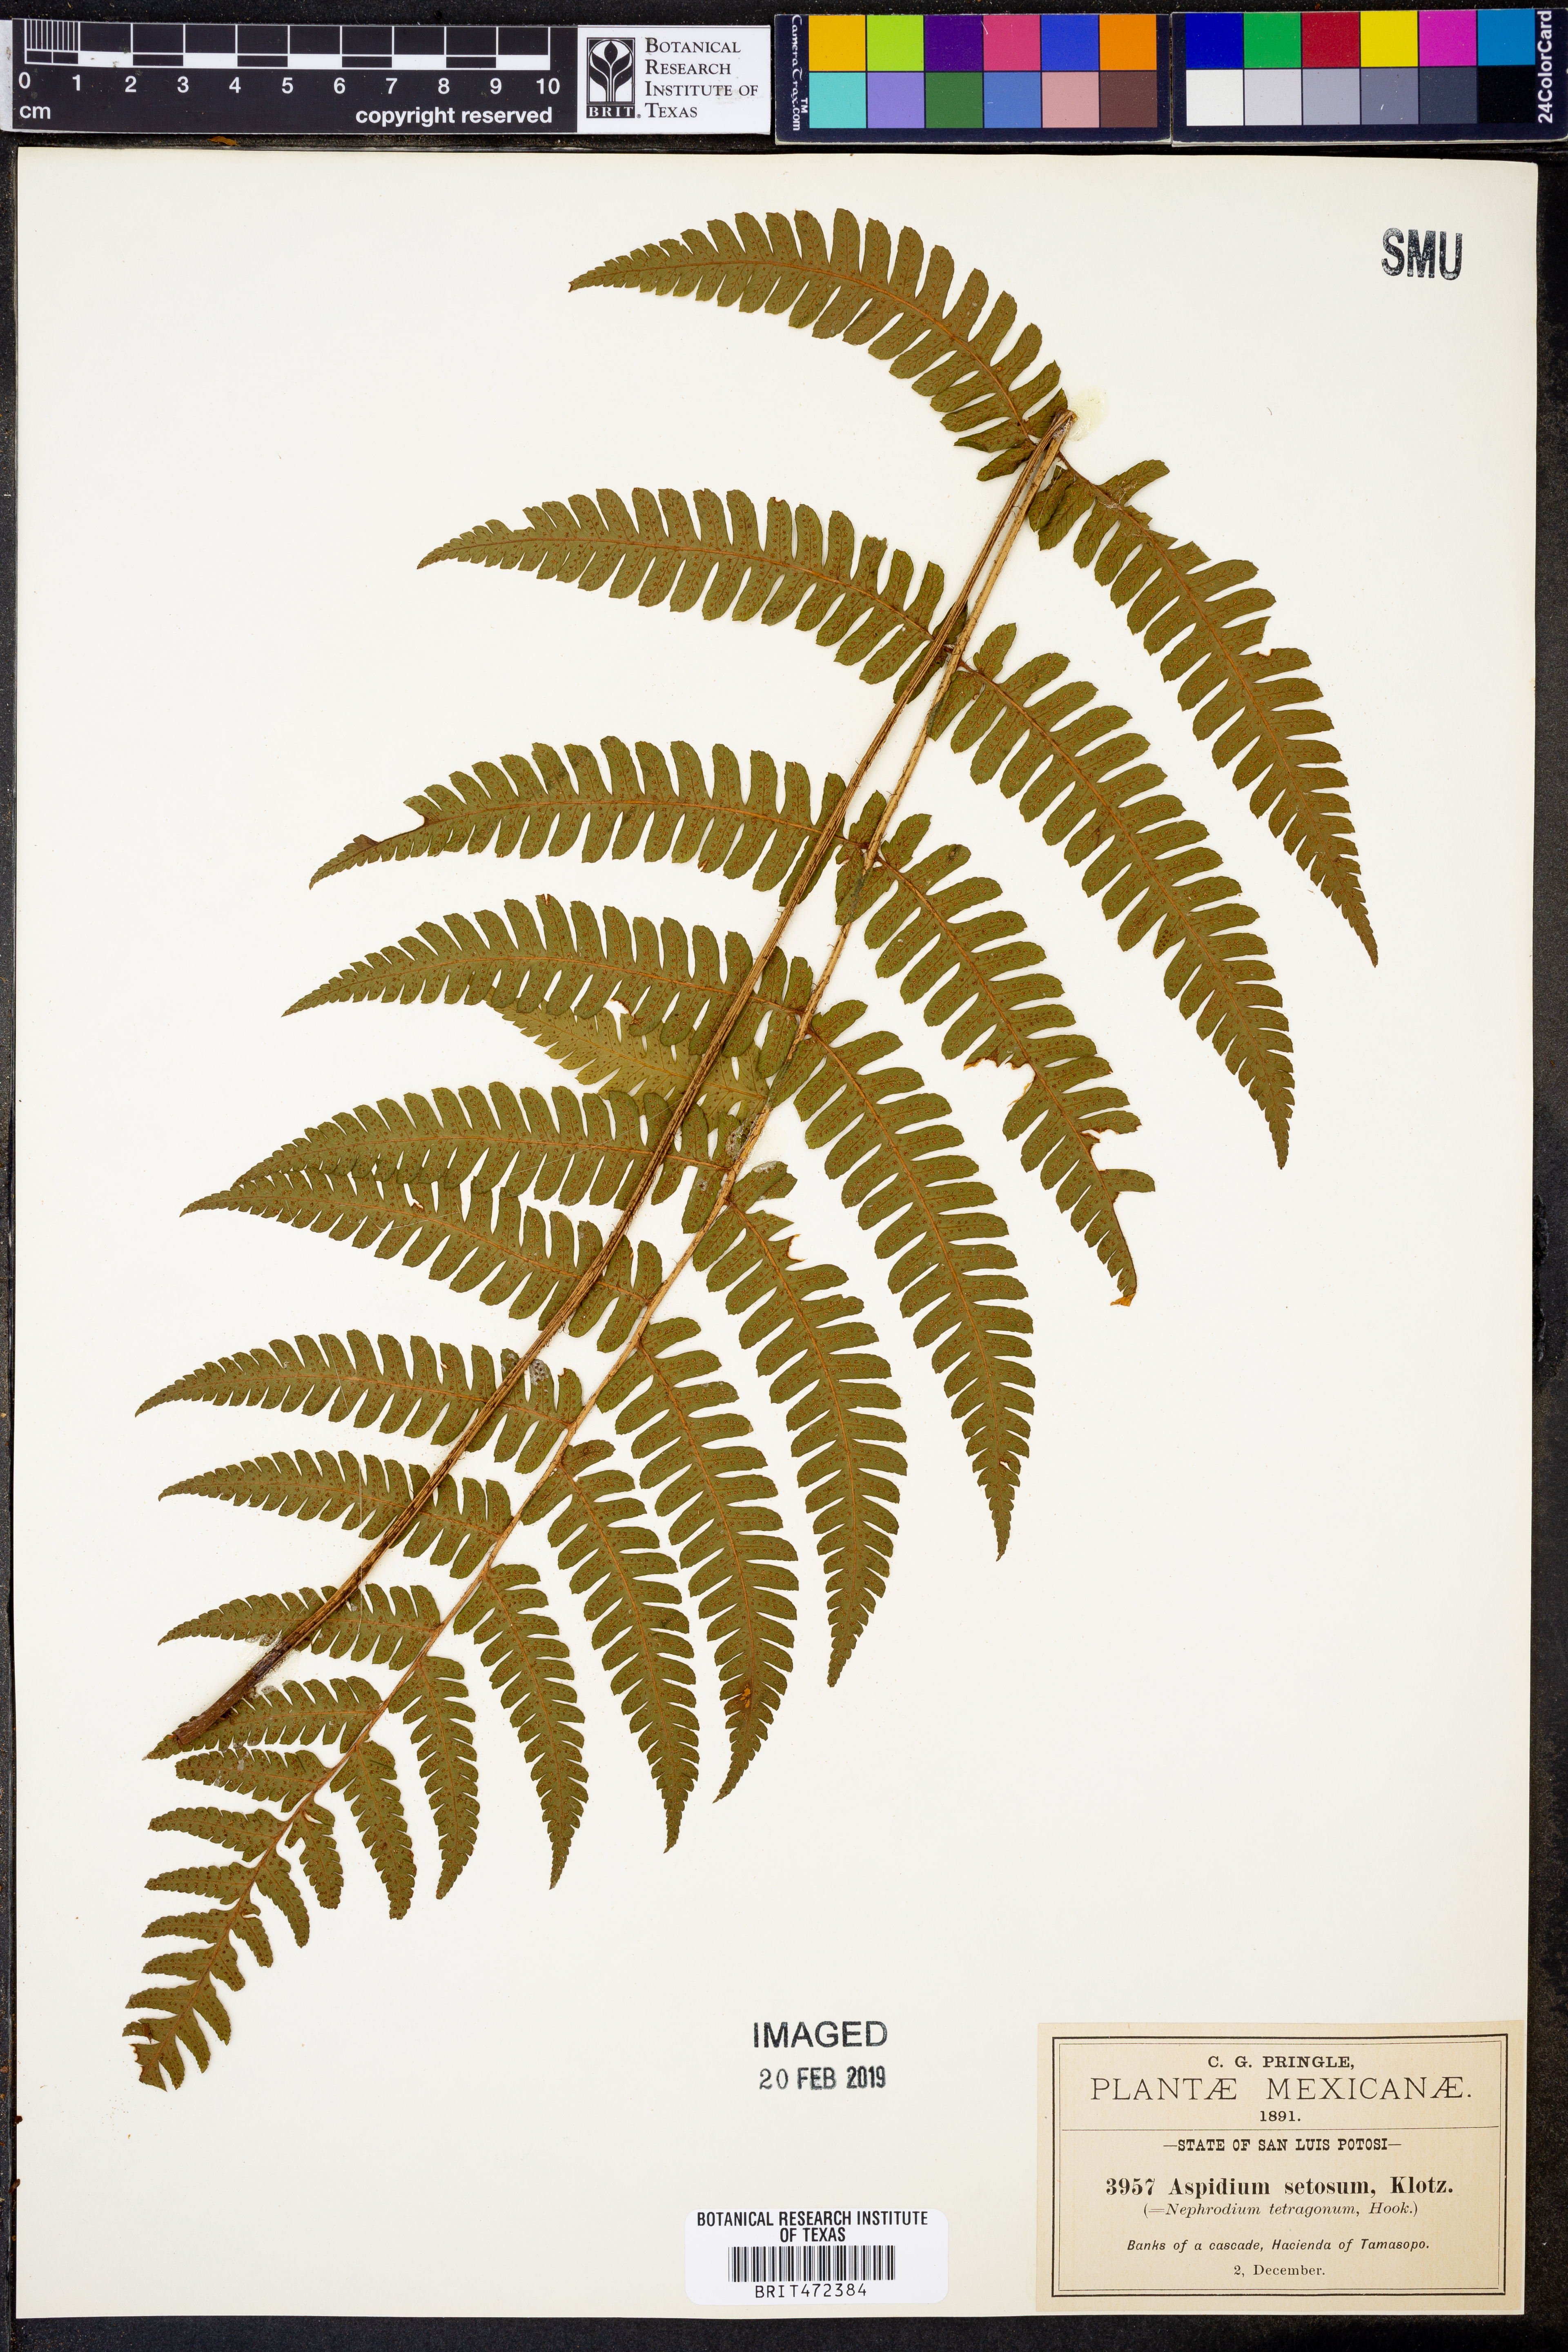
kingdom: Plantae
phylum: Tracheophyta
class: Polypodiopsida
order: Polypodiales
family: Dryopteridaceae
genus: Ctenitis
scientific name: Ctenitis nigrovenia
